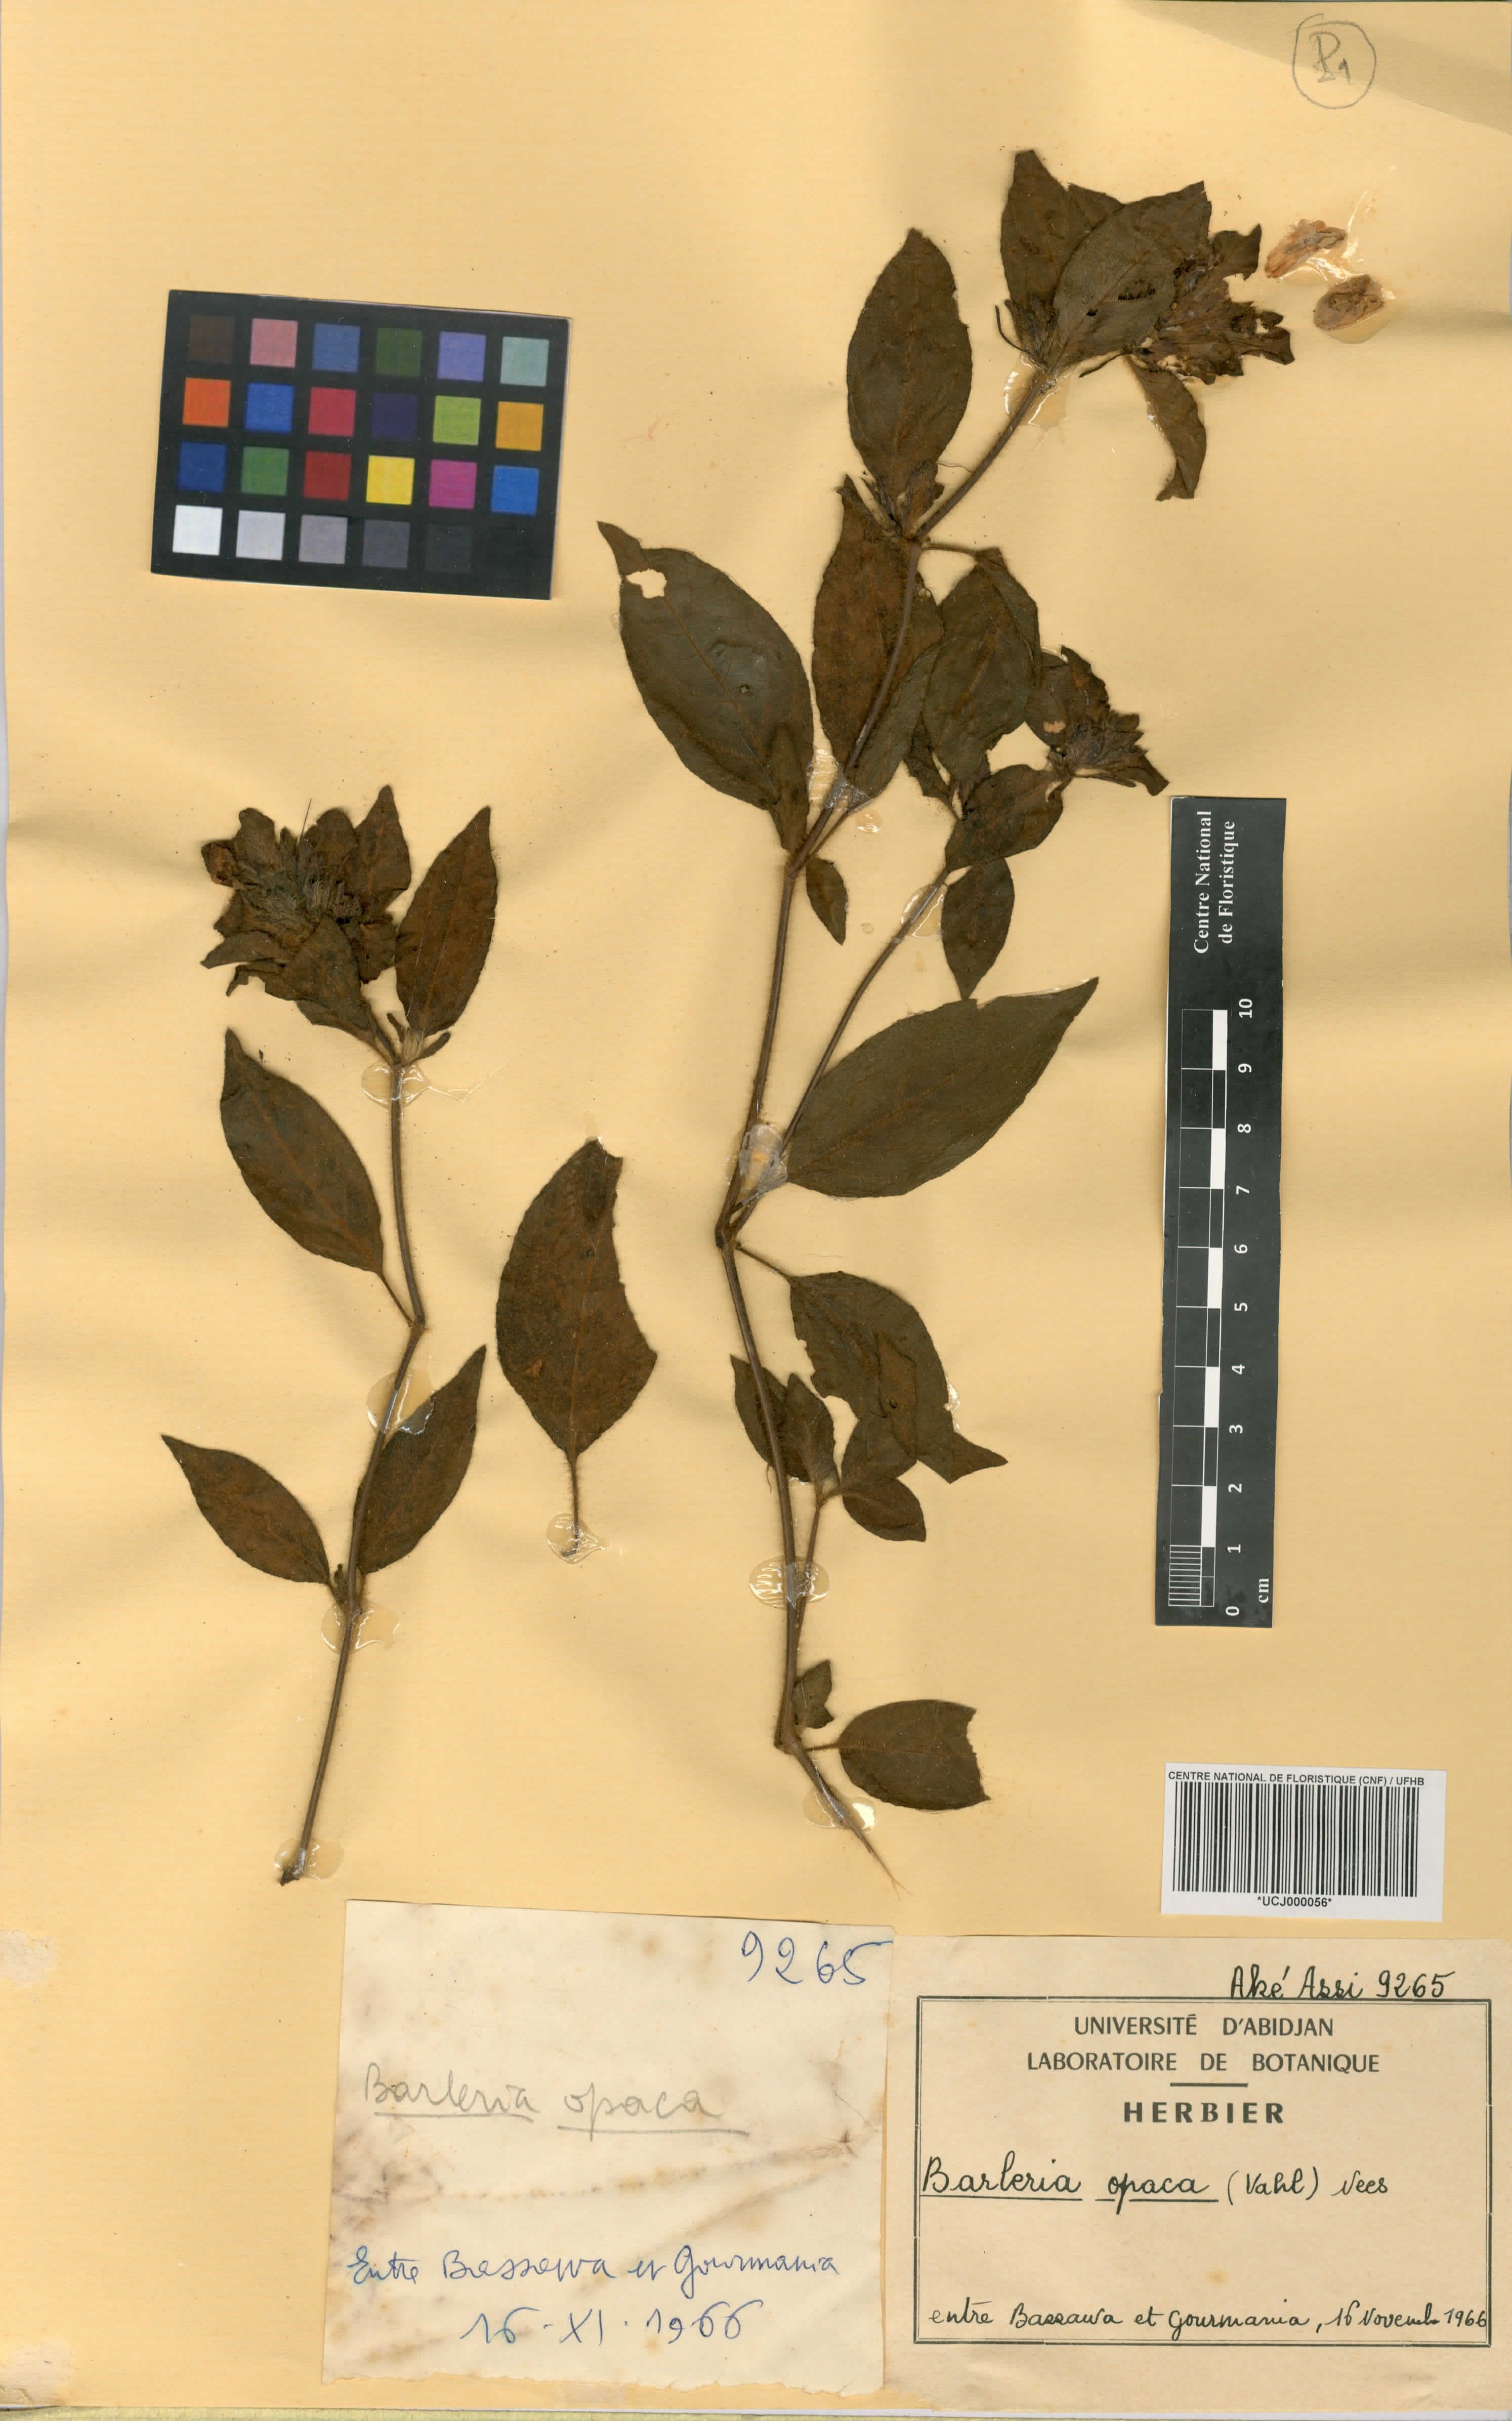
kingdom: Plantae
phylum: Tracheophyta
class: Magnoliopsida
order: Lamiales
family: Acanthaceae
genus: Barleria
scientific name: Barleria opaca
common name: Kwahu
